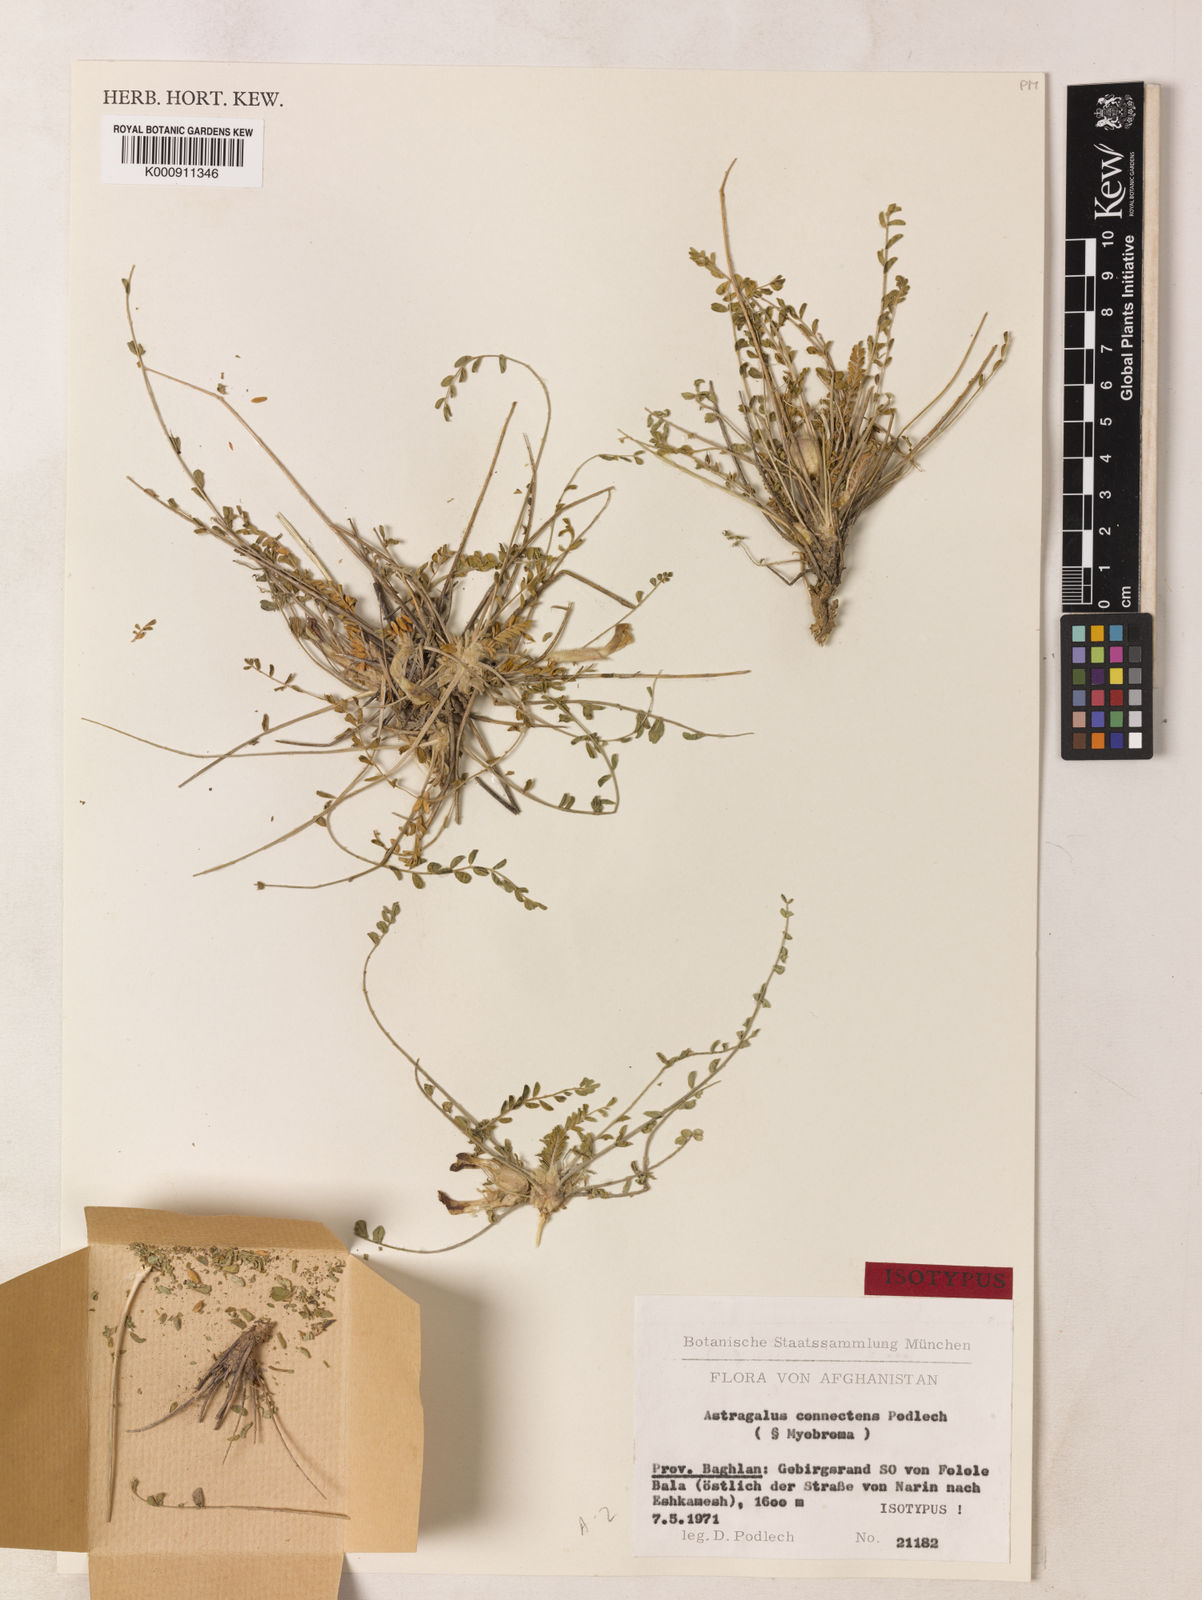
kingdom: Plantae
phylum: Tracheophyta
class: Magnoliopsida
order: Fabales
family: Fabaceae
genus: Astragalus
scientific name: Astragalus connectens
